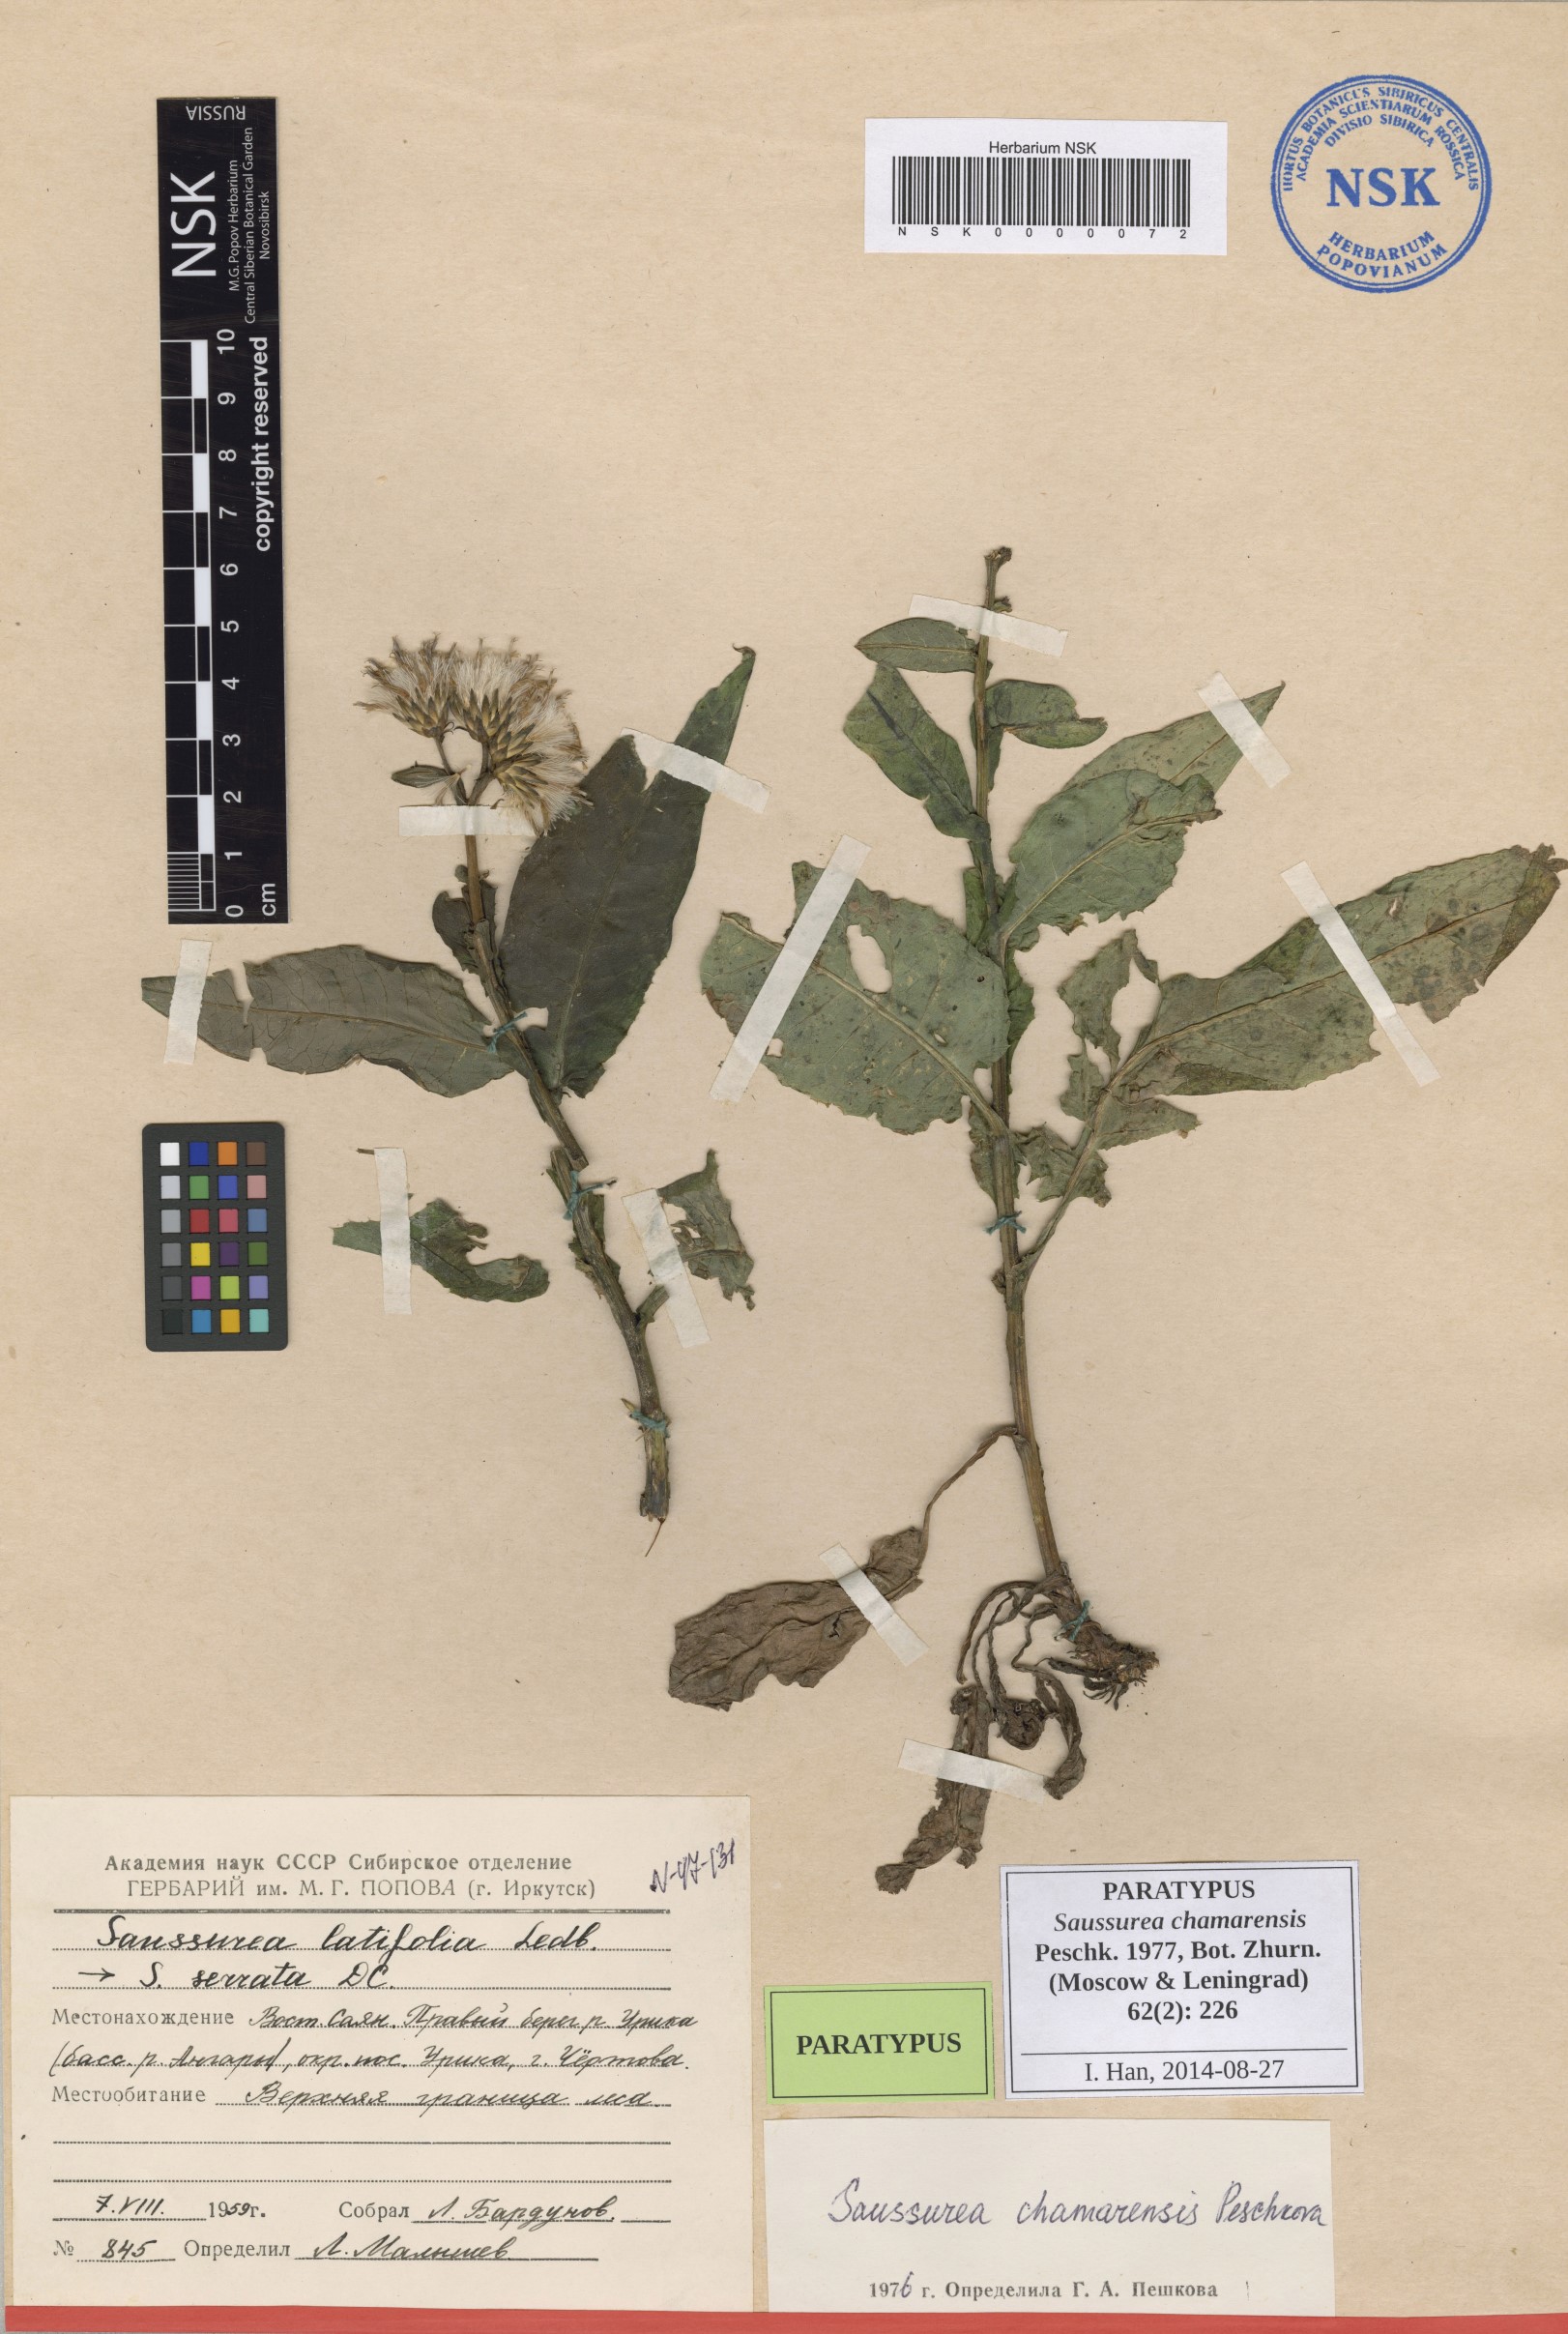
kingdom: Plantae
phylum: Tracheophyta
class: Magnoliopsida
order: Asterales
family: Asteraceae
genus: Saussurea
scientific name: Saussurea chamarensis
